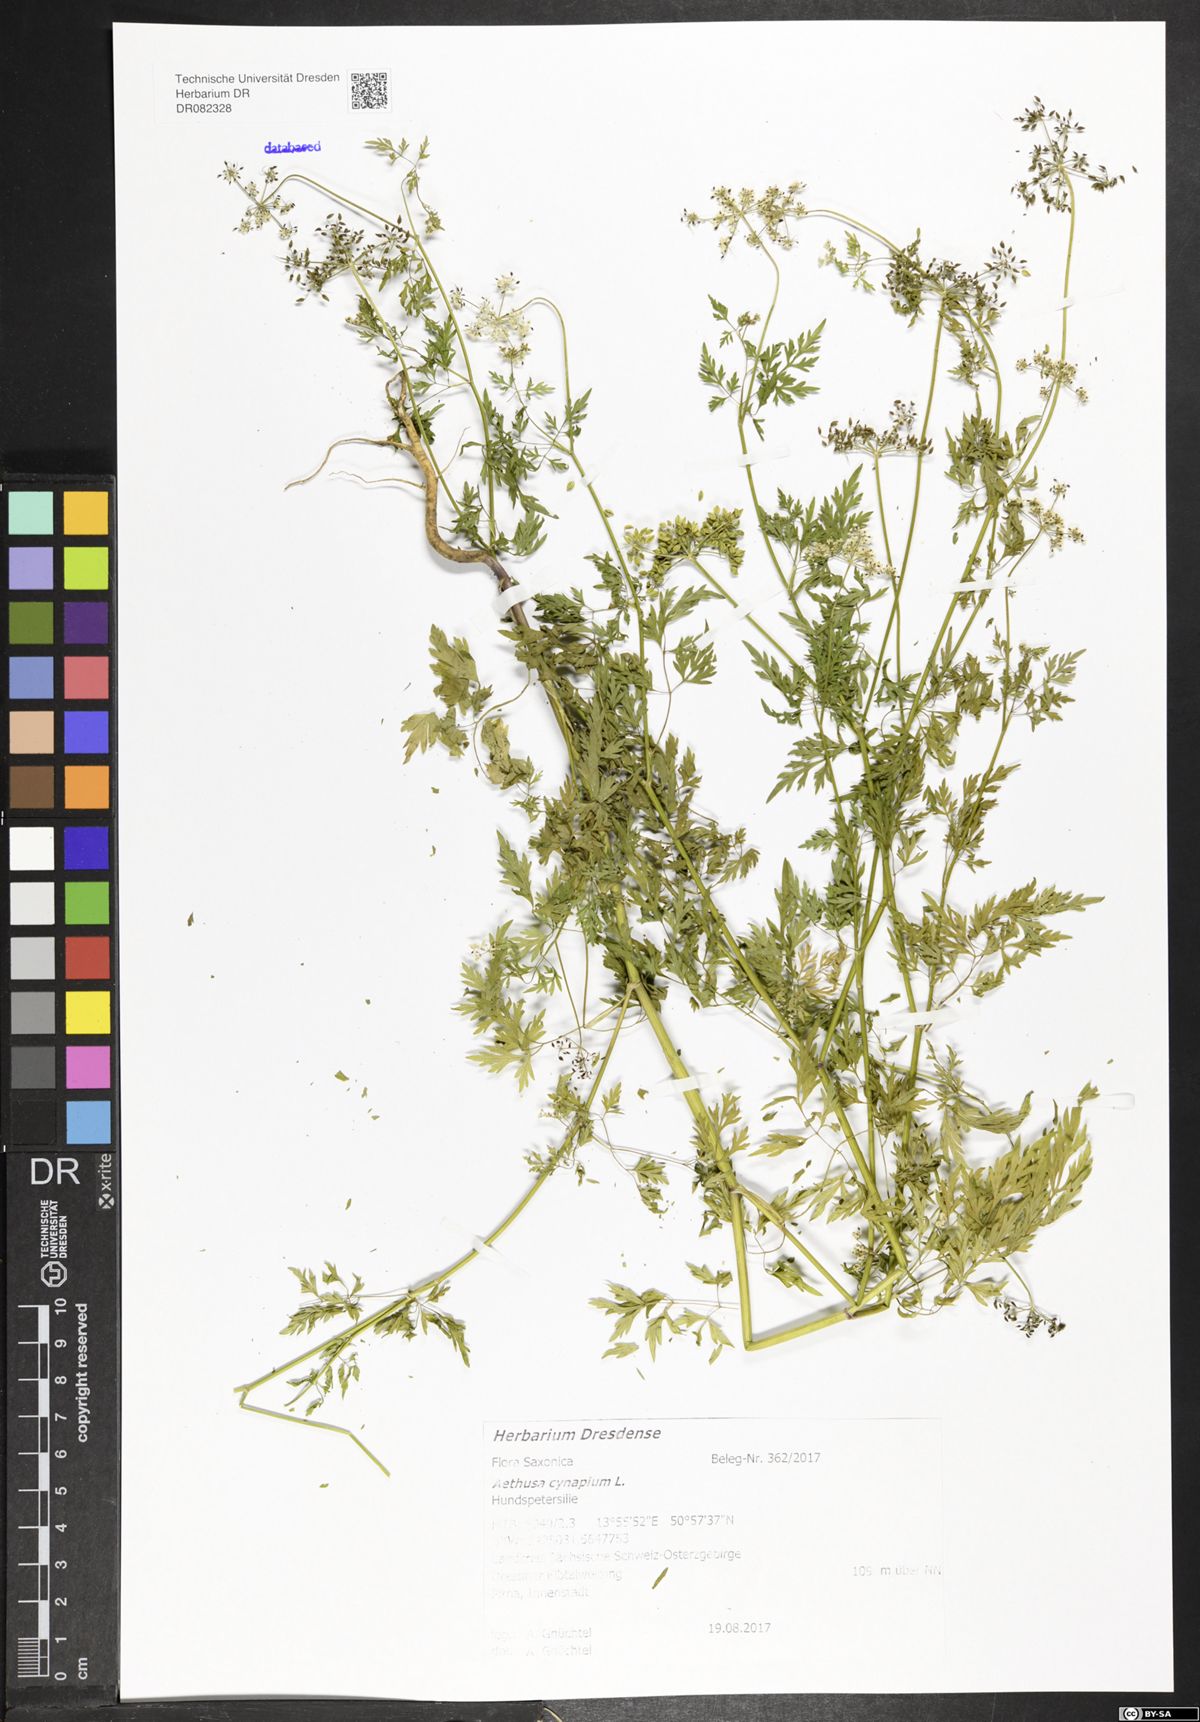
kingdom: Plantae
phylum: Tracheophyta
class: Magnoliopsida
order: Apiales
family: Apiaceae
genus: Aethusa
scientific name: Aethusa cynapium
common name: Fool's parsley
